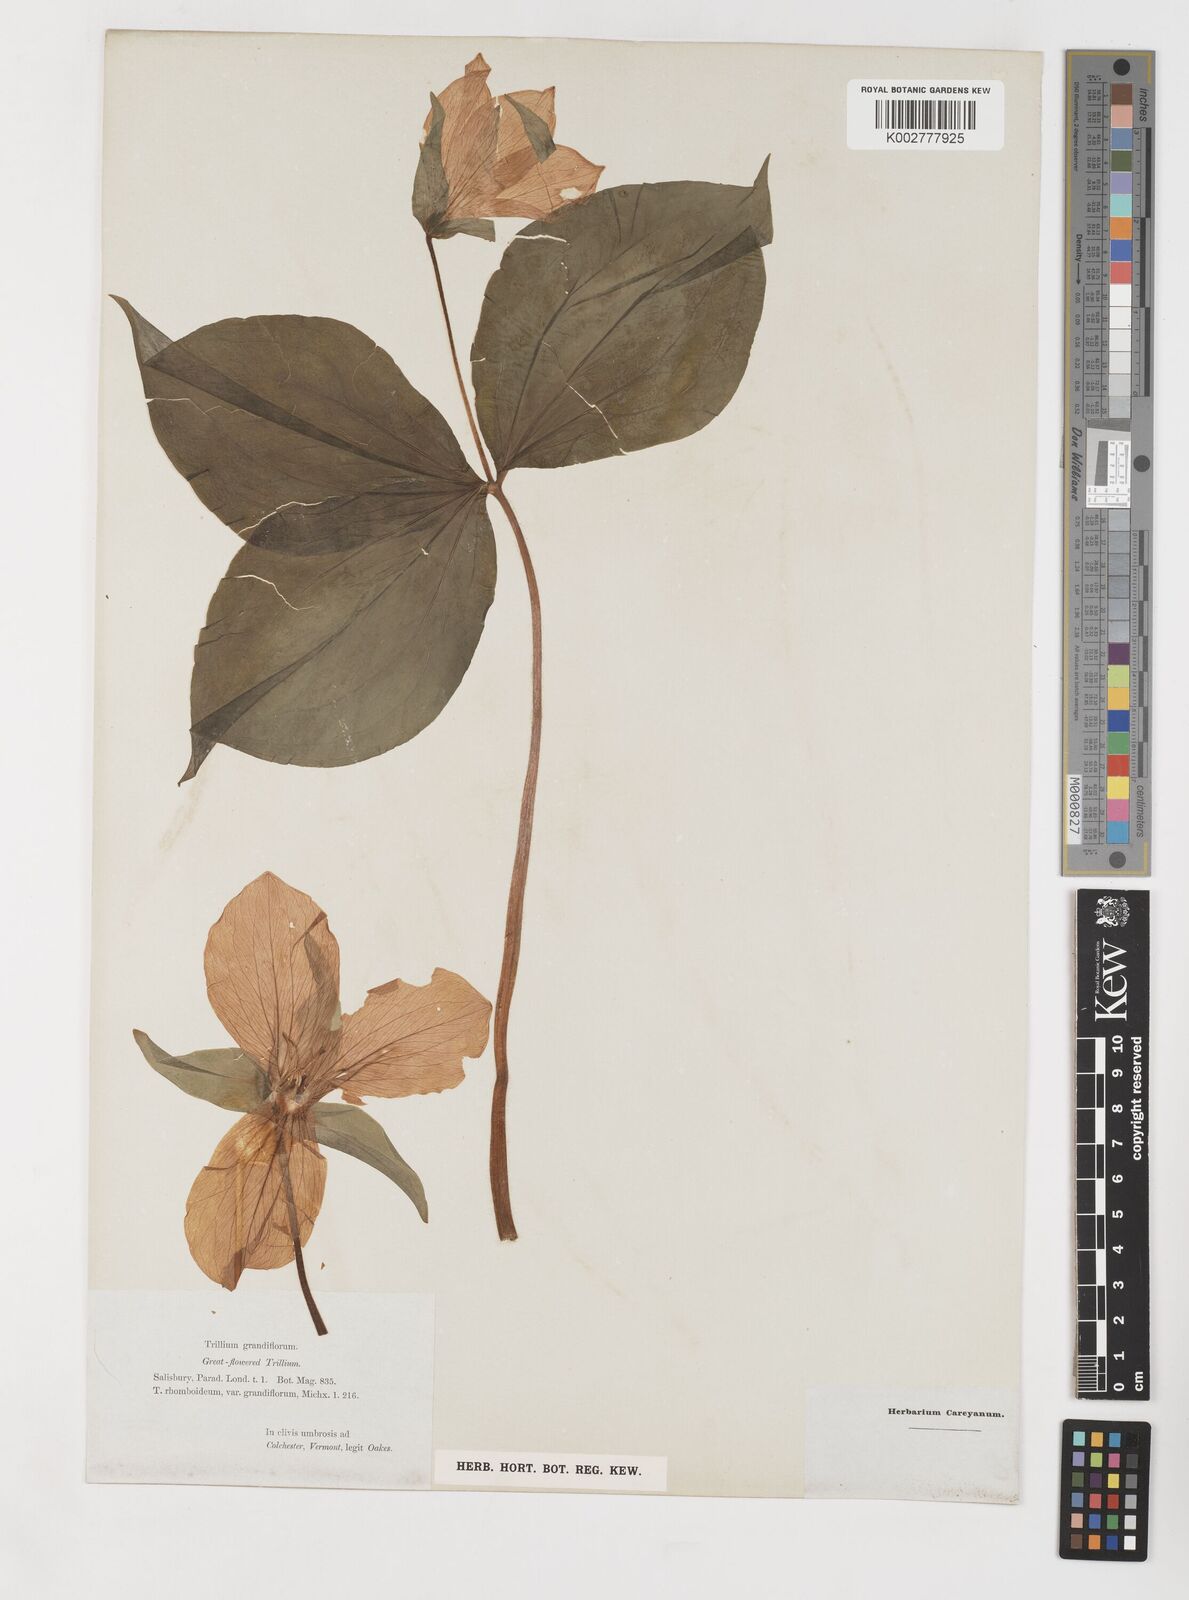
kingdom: Plantae
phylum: Tracheophyta
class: Liliopsida
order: Liliales
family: Melanthiaceae
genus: Trillium
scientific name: Trillium grandiflorum
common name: Great white trillium
